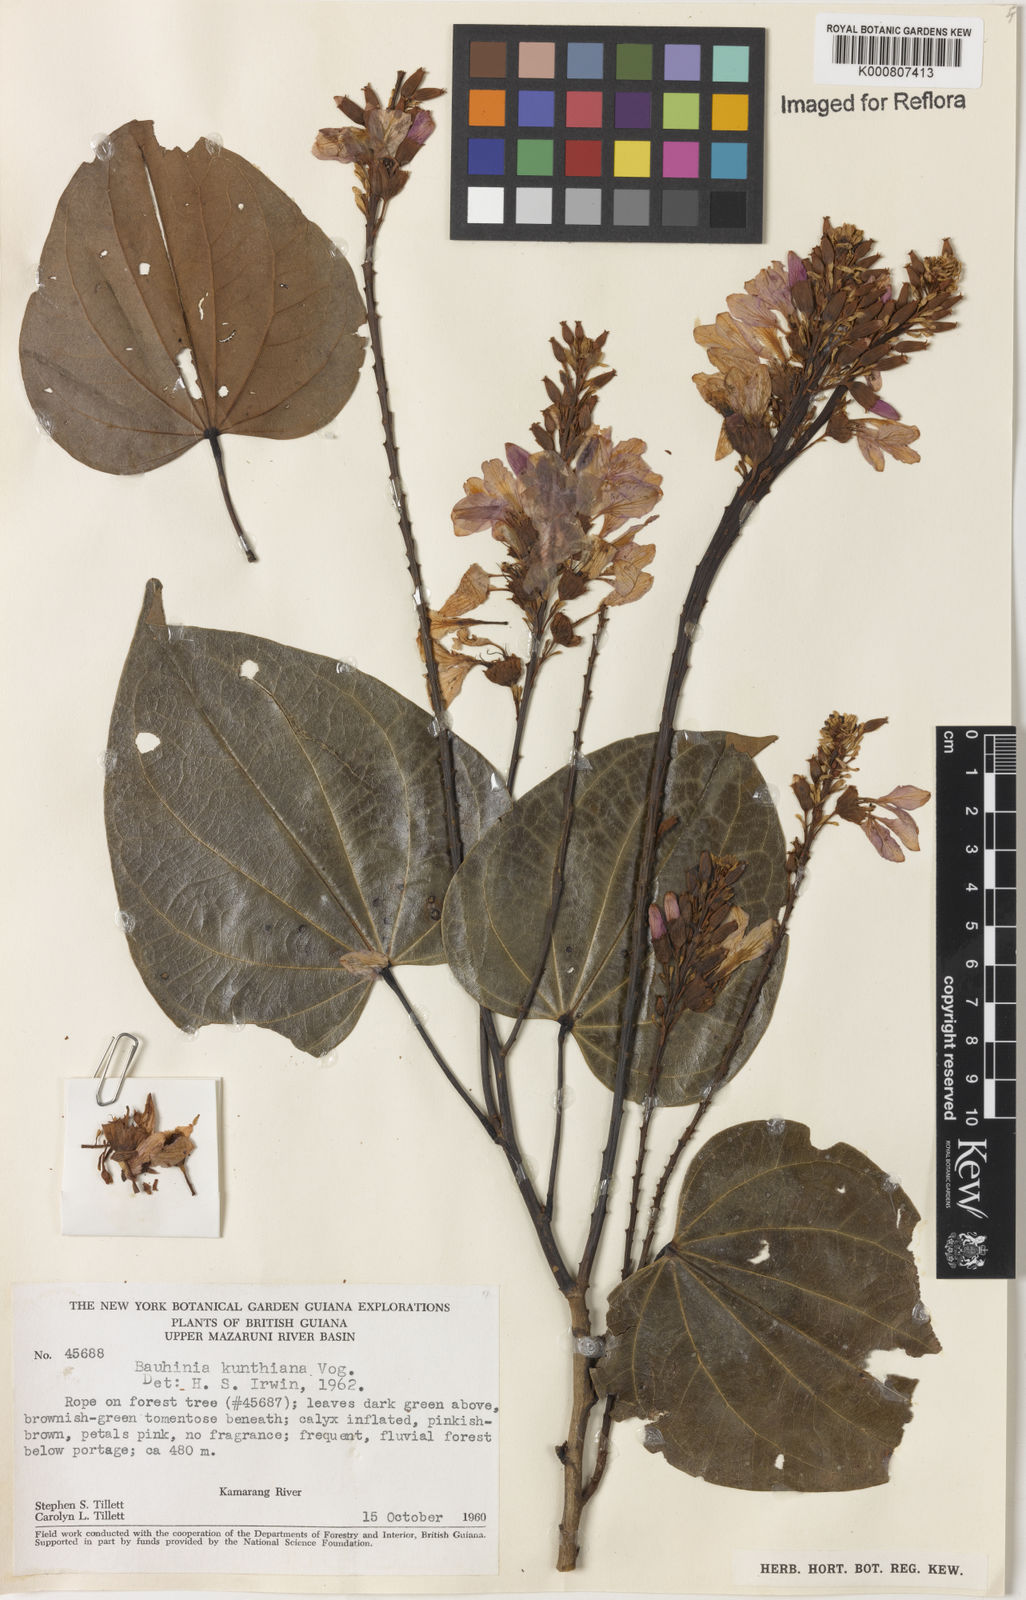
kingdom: Plantae
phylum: Tracheophyta
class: Magnoliopsida
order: Fabales
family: Fabaceae
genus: Schnella
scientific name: Schnella kunthiana
